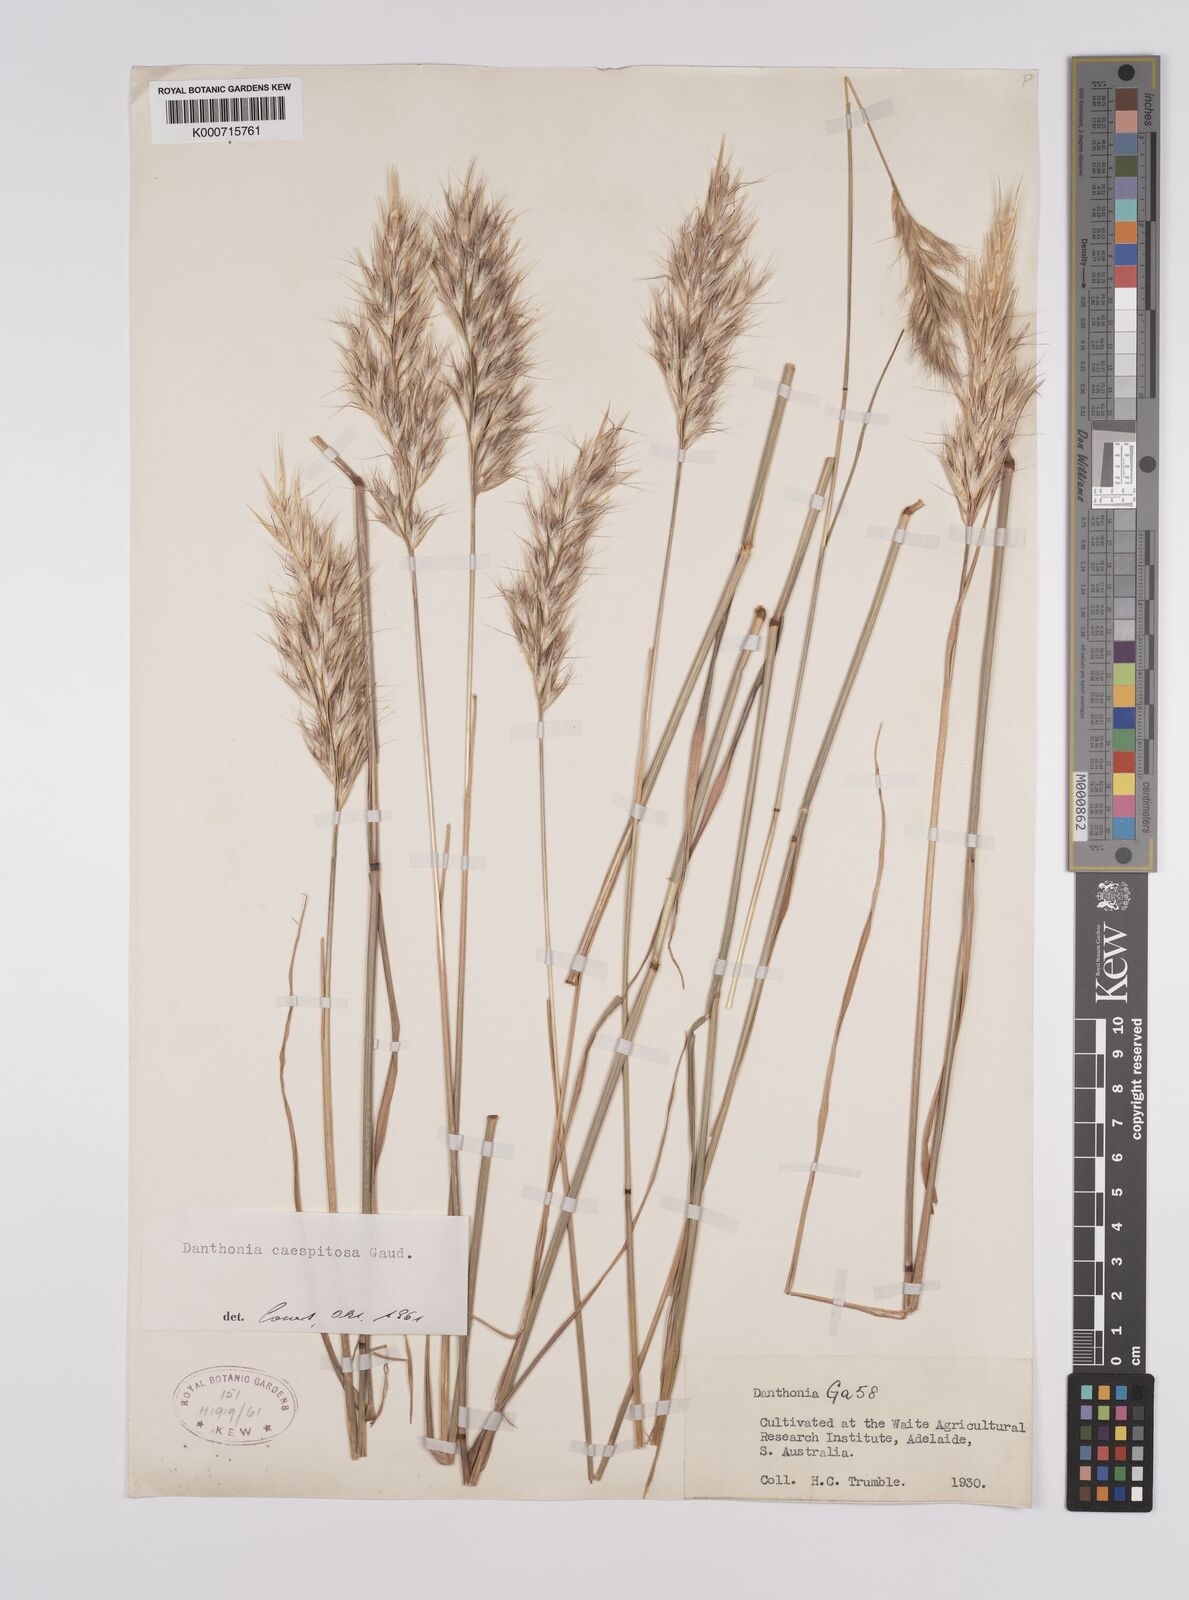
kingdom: Plantae
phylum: Tracheophyta
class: Liliopsida
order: Poales
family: Poaceae
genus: Rytidosperma
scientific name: Rytidosperma caespitosum
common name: Tufted wallaby grass
